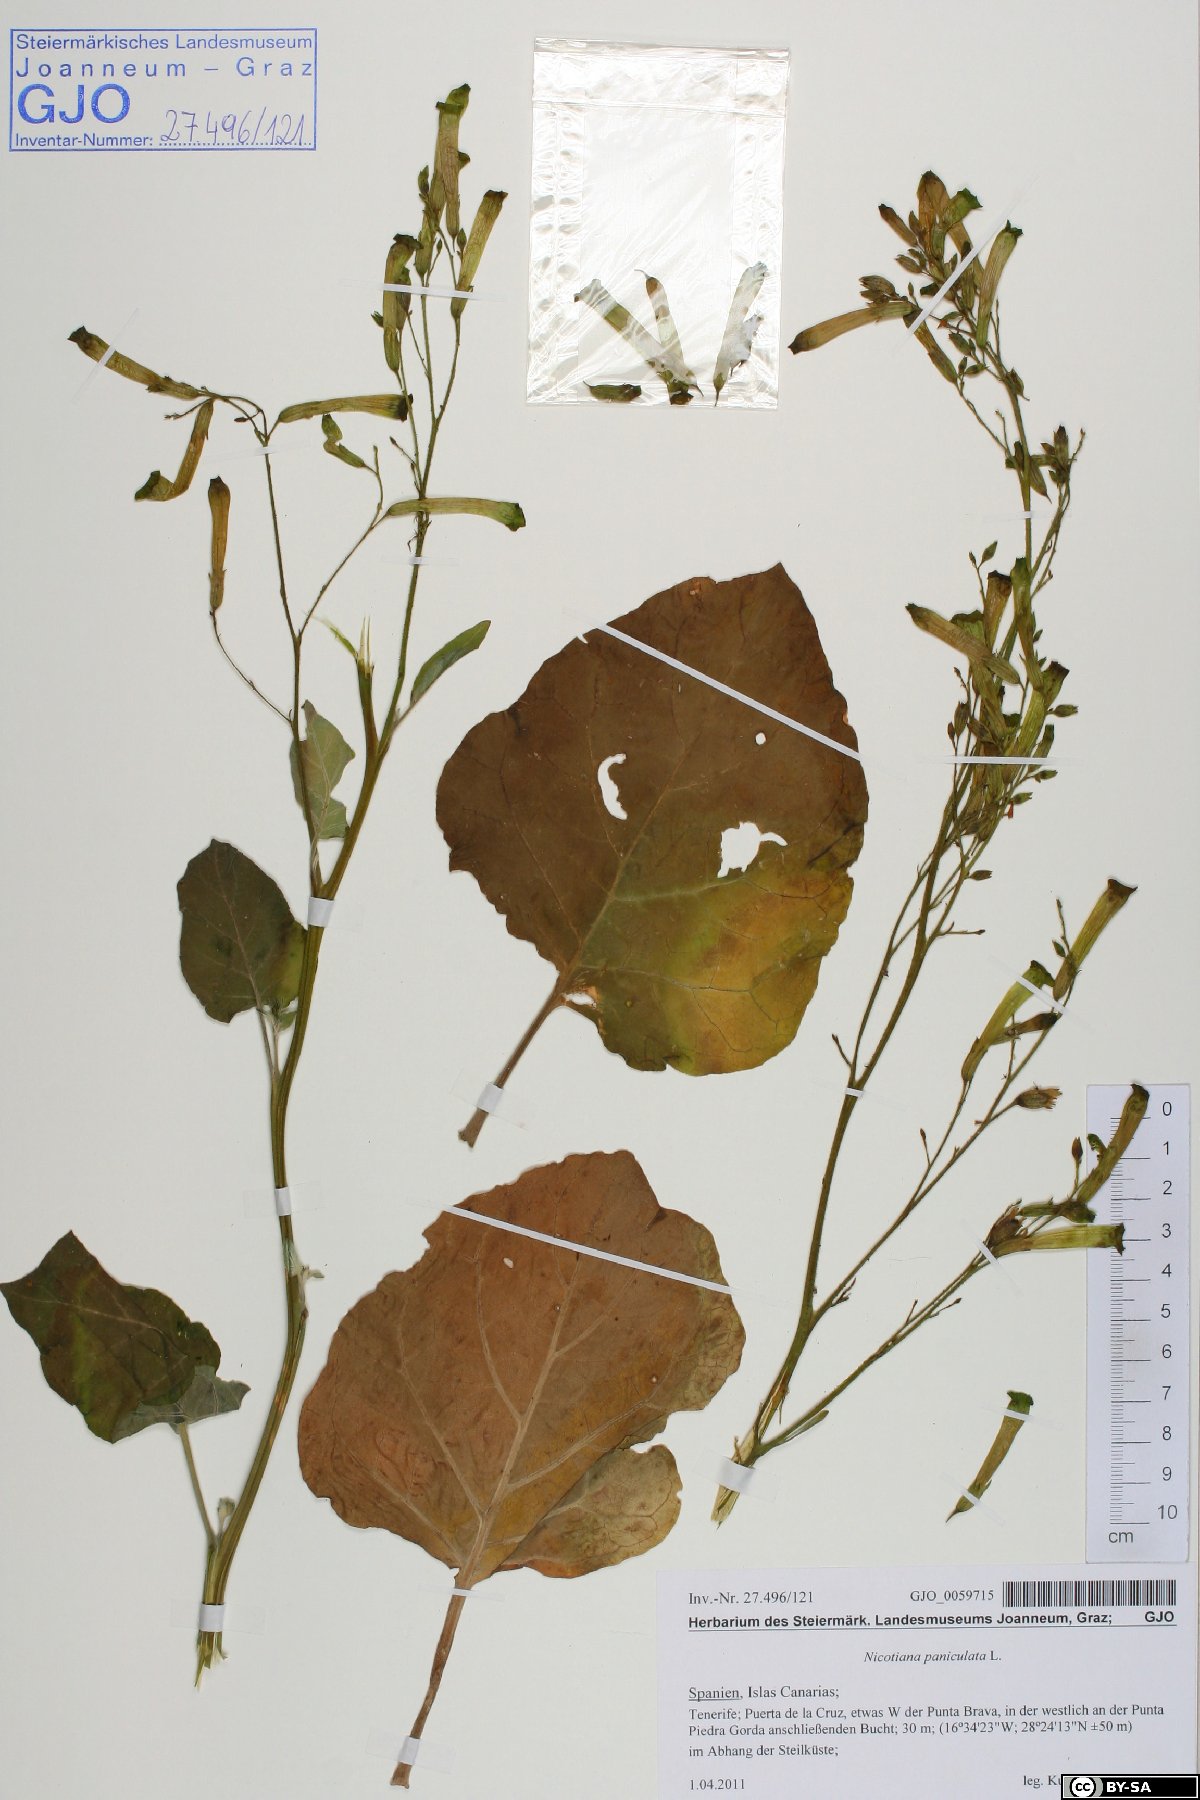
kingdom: Plantae
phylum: Tracheophyta
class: Magnoliopsida
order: Solanales
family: Solanaceae
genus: Nicotiana
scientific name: Nicotiana paniculata
